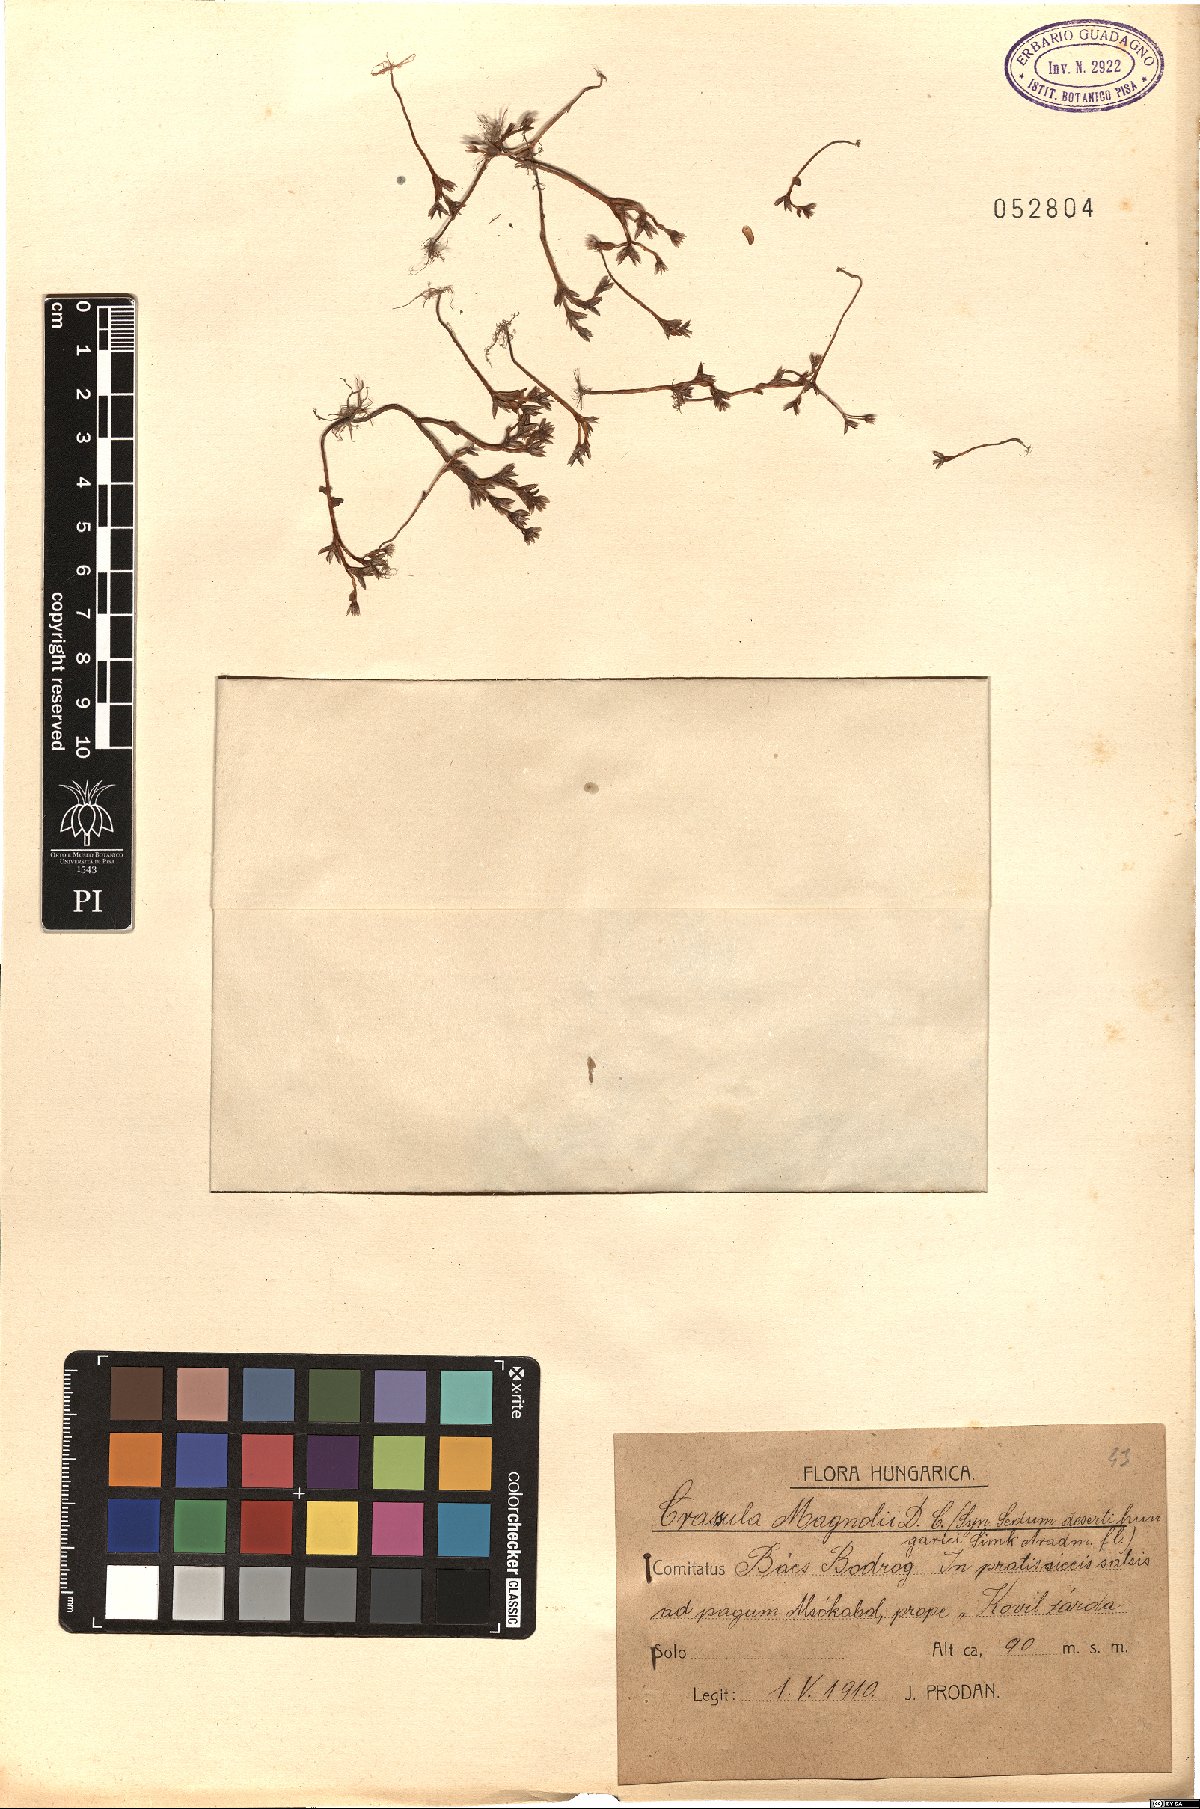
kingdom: Plantae
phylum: Tracheophyta
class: Magnoliopsida
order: Saxifragales
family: Crassulaceae
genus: Sedum
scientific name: Sedum cespitosum
